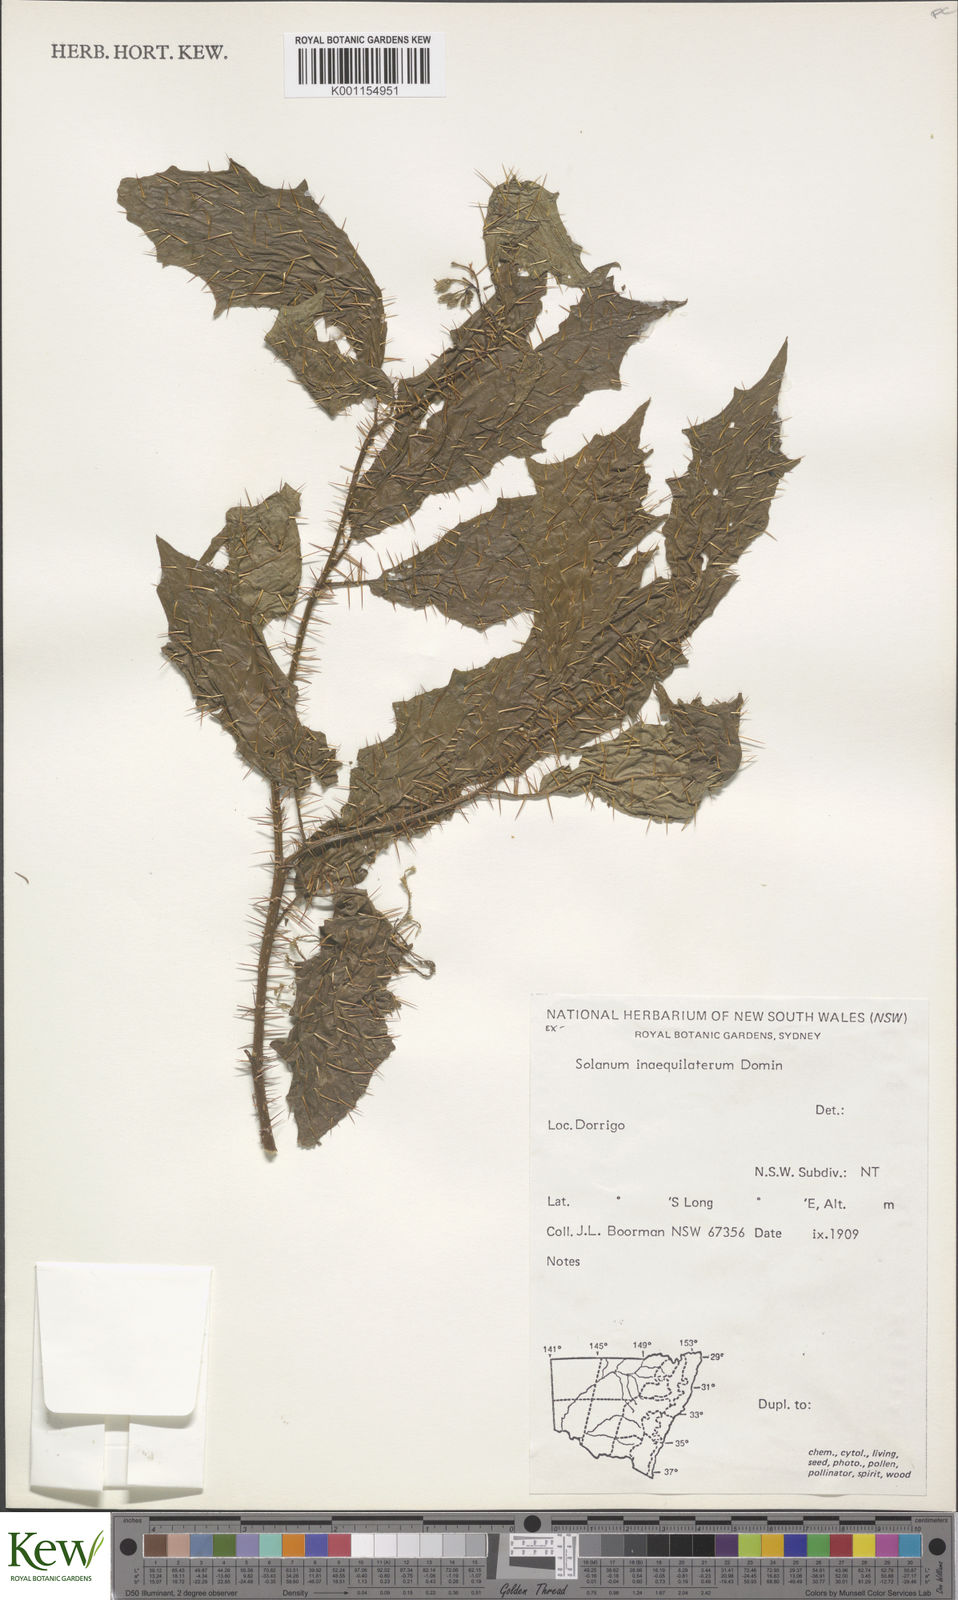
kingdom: Plantae
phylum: Tracheophyta
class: Magnoliopsida
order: Solanales
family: Solanaceae
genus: Solanum
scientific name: Solanum inaequilaterum
